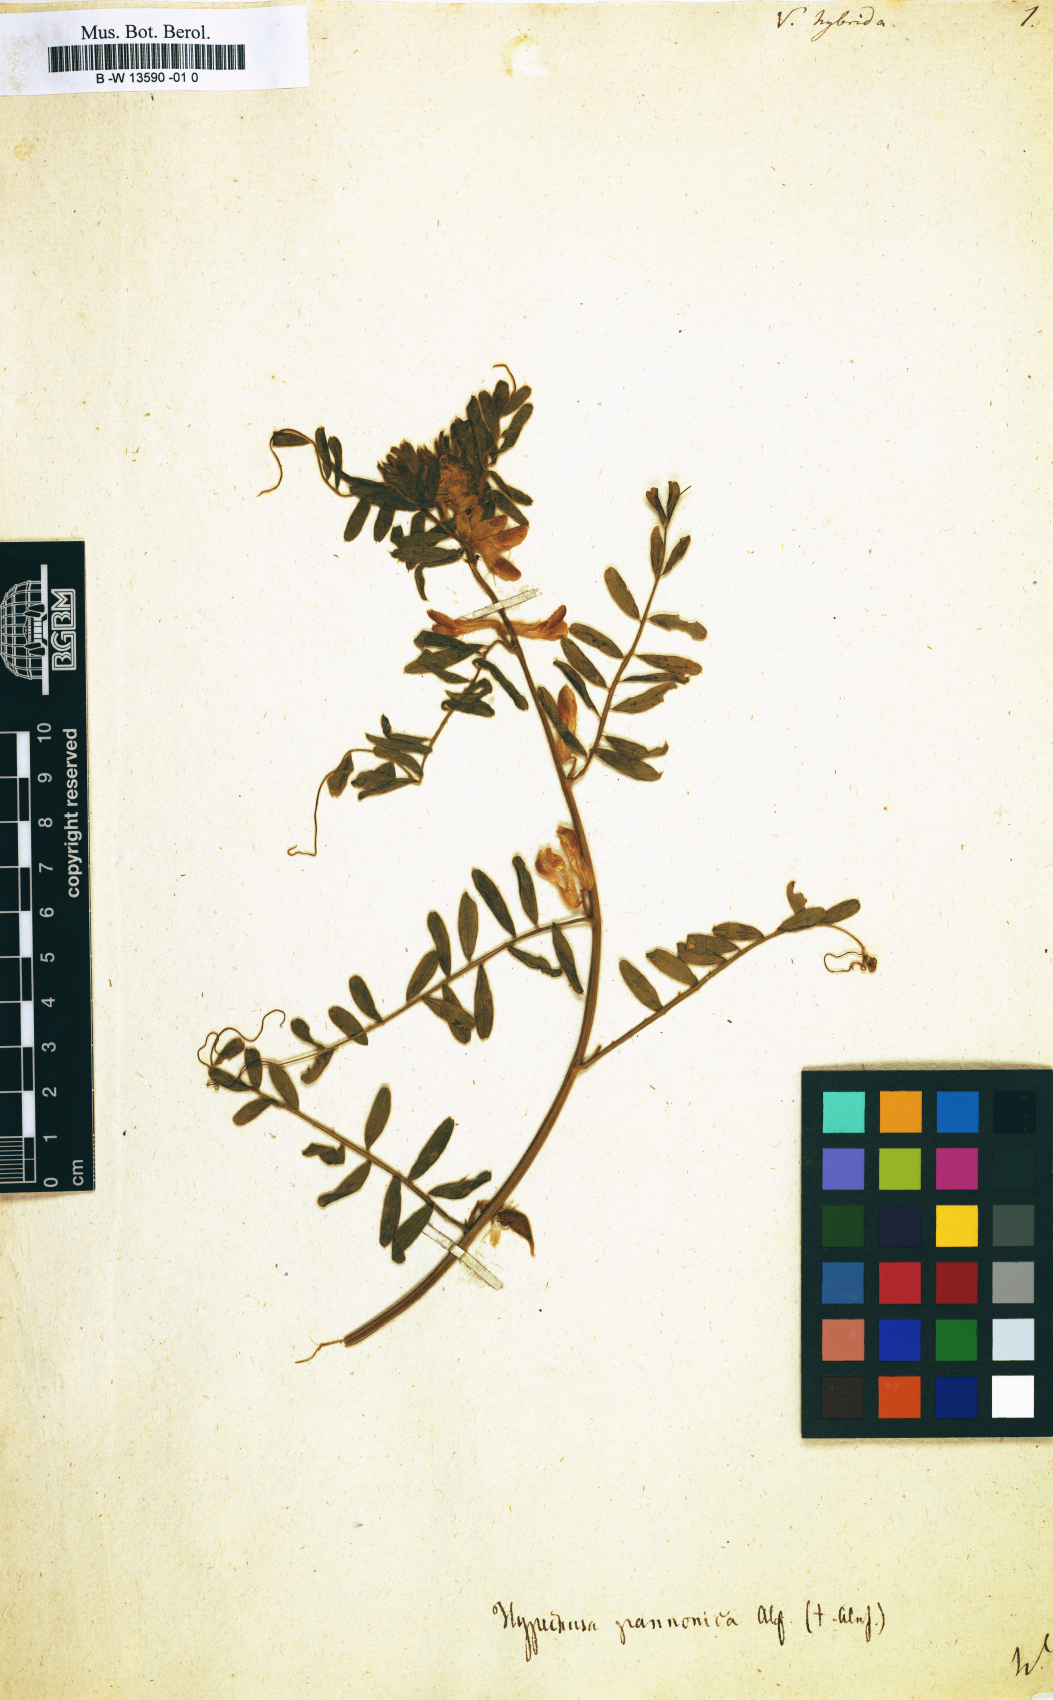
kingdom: Plantae
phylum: Tracheophyta
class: Magnoliopsida
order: Fabales
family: Fabaceae
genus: Vicia
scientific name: Vicia hybrida
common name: Hairy yellow vetch
